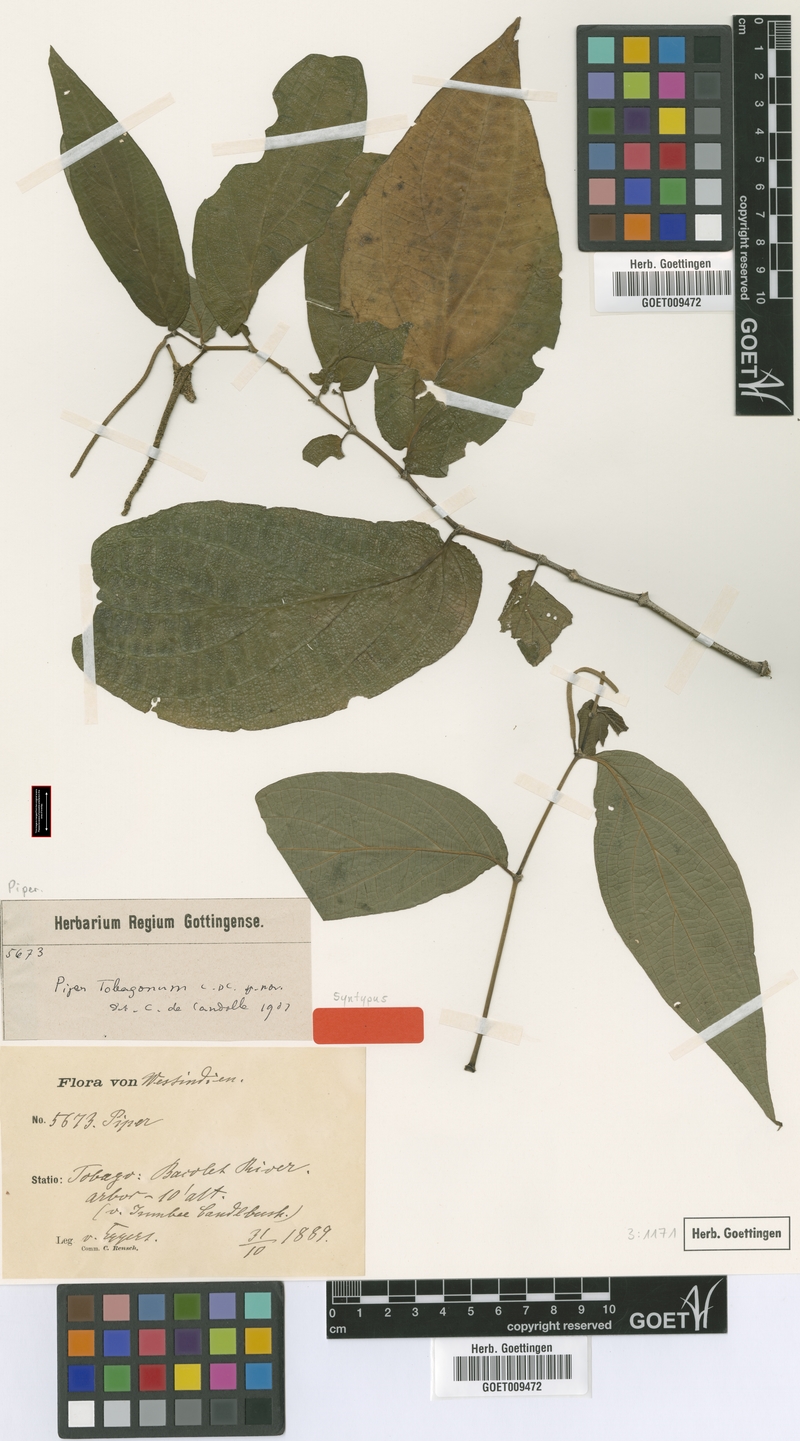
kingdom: Plantae
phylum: Tracheophyta
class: Magnoliopsida
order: Piperales
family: Piperaceae
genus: Piper
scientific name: Piper dilatatum
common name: Higuillo
